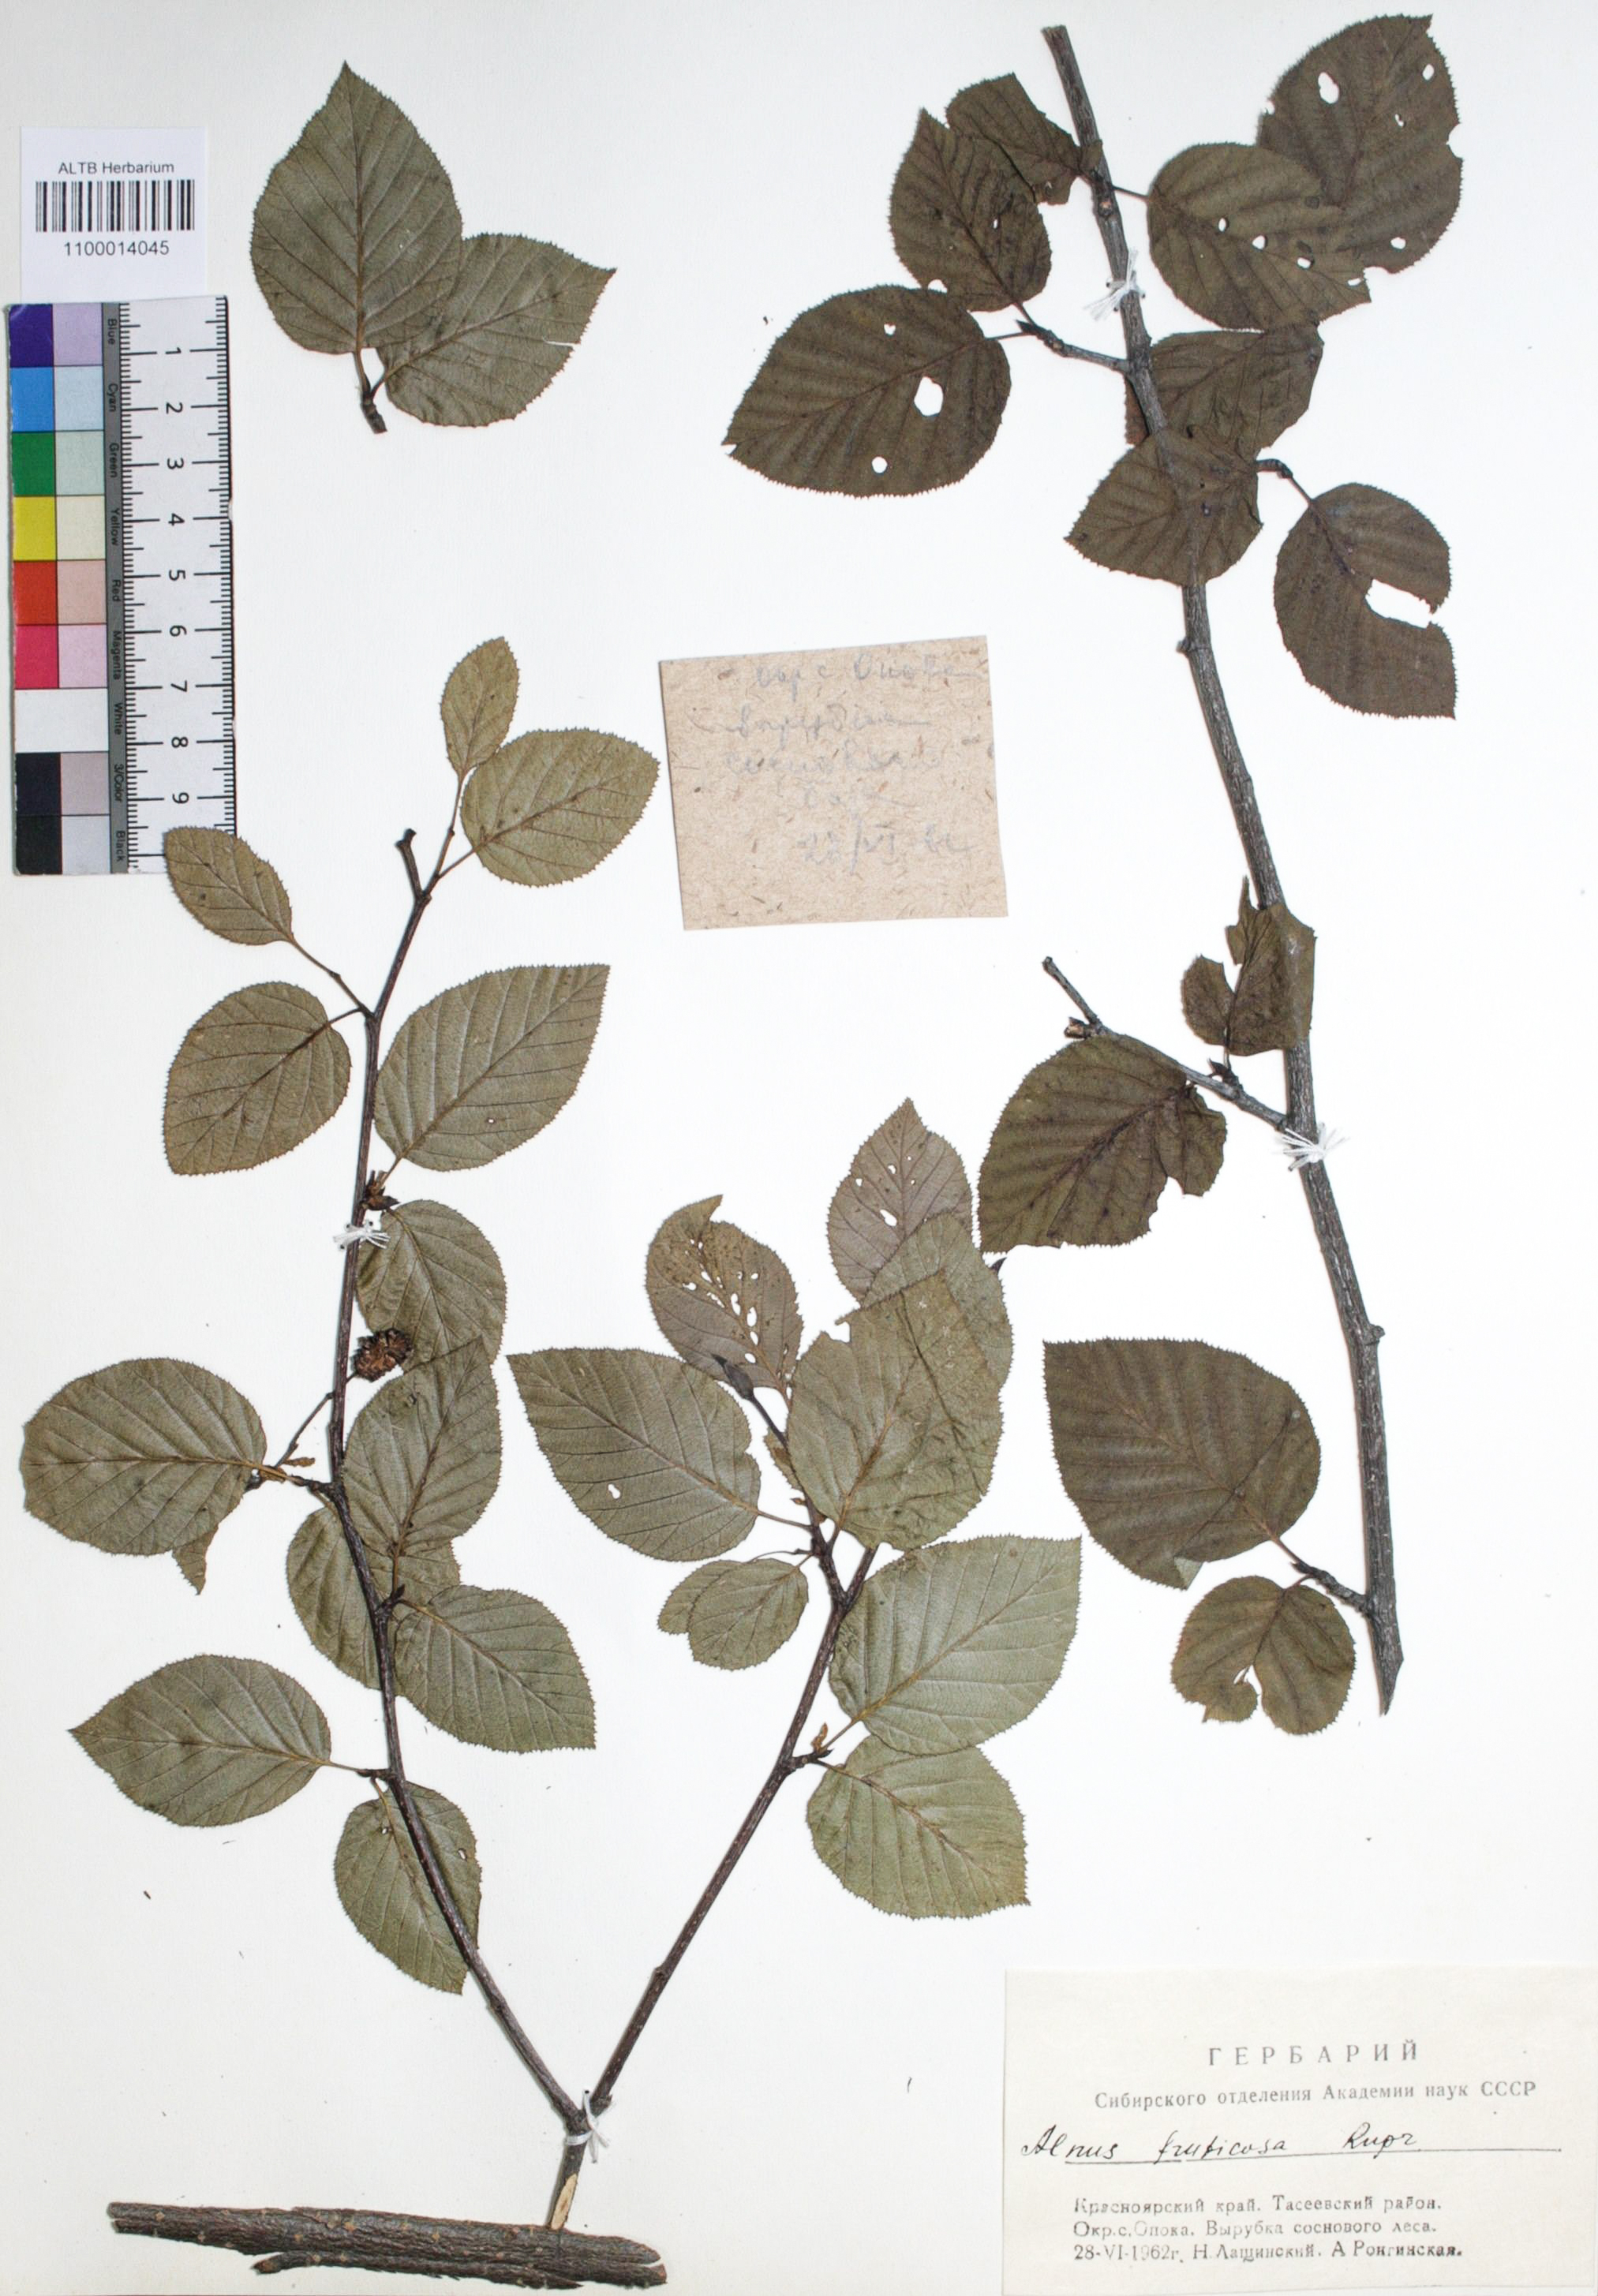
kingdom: Plantae
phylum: Tracheophyta
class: Magnoliopsida
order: Fagales
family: Betulaceae
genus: Alnus
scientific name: Alnus alnobetula
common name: Green alder
